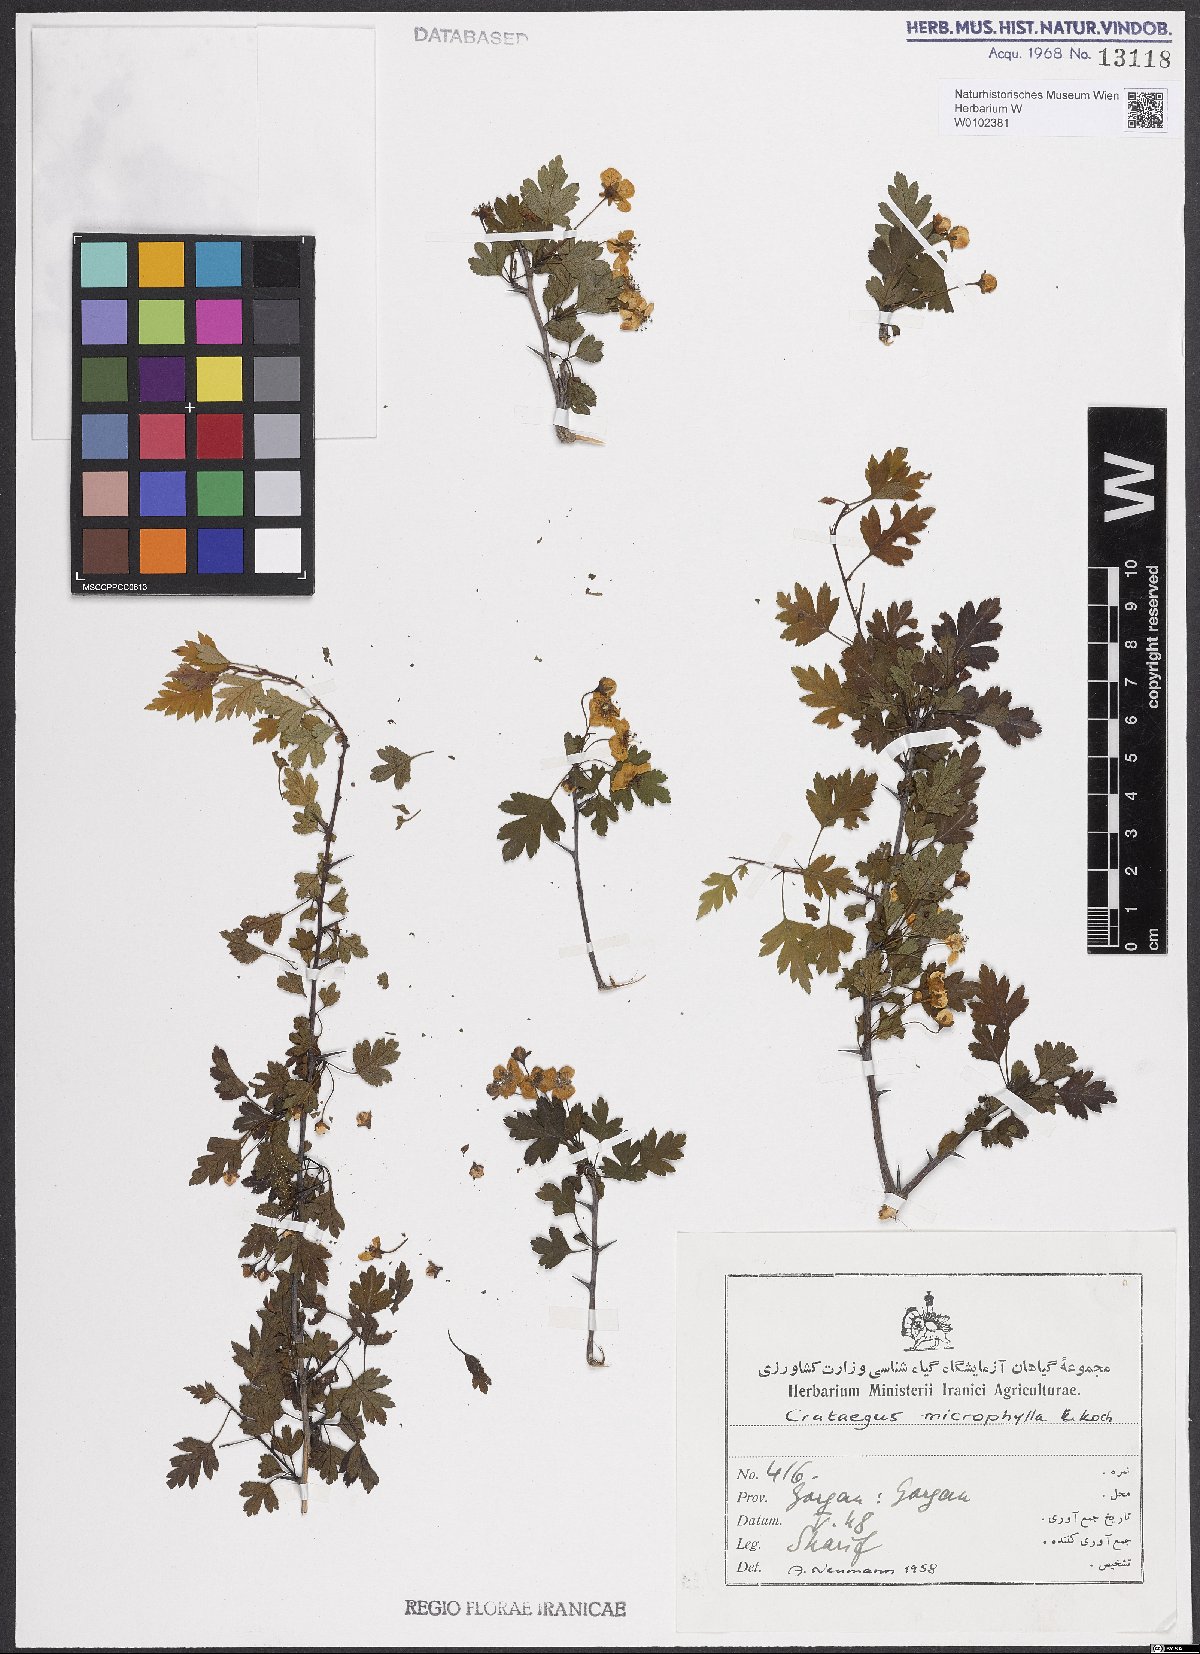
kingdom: Plantae
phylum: Tracheophyta
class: Magnoliopsida
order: Rosales
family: Rosaceae
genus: Crataegus
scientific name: Crataegus microphylla
